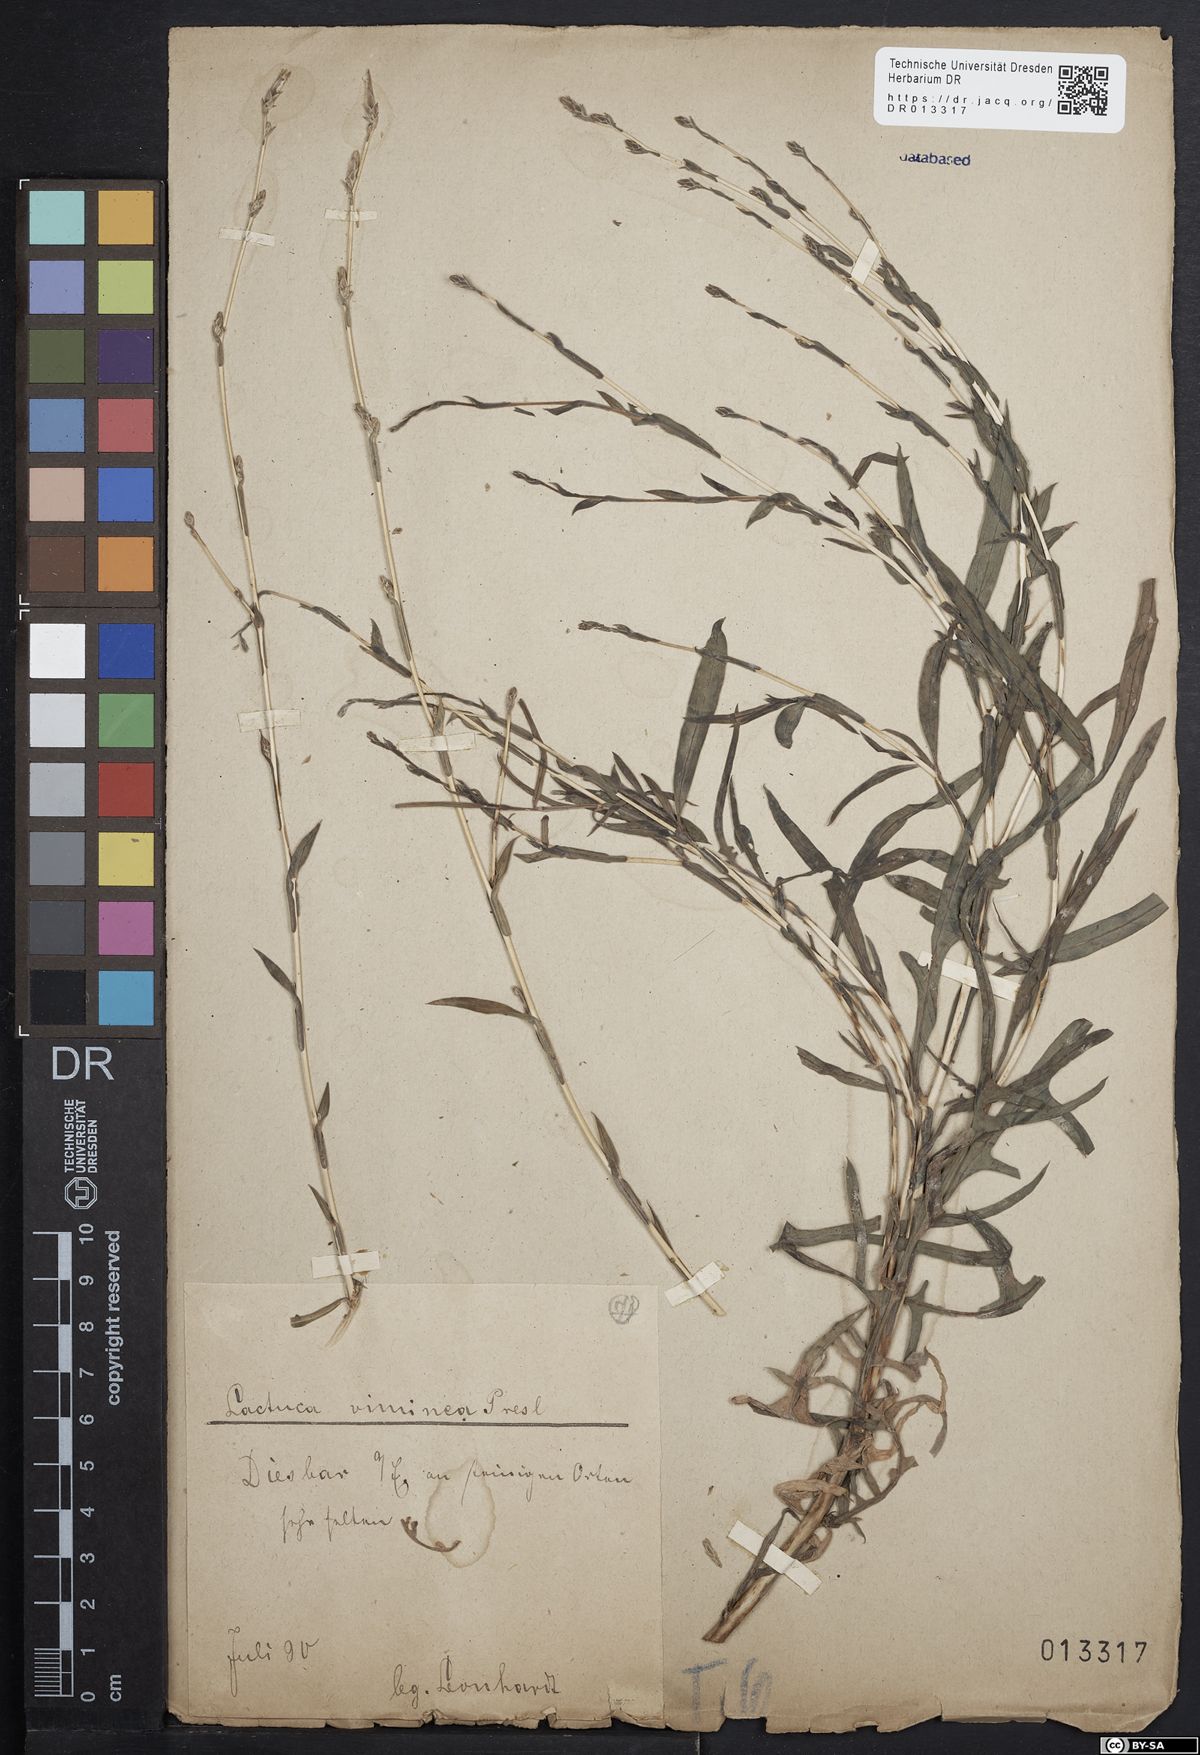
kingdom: Plantae
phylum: Tracheophyta
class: Magnoliopsida
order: Asterales
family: Asteraceae
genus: Lactuca
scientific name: Lactuca viminea
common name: Pliant lettuce
